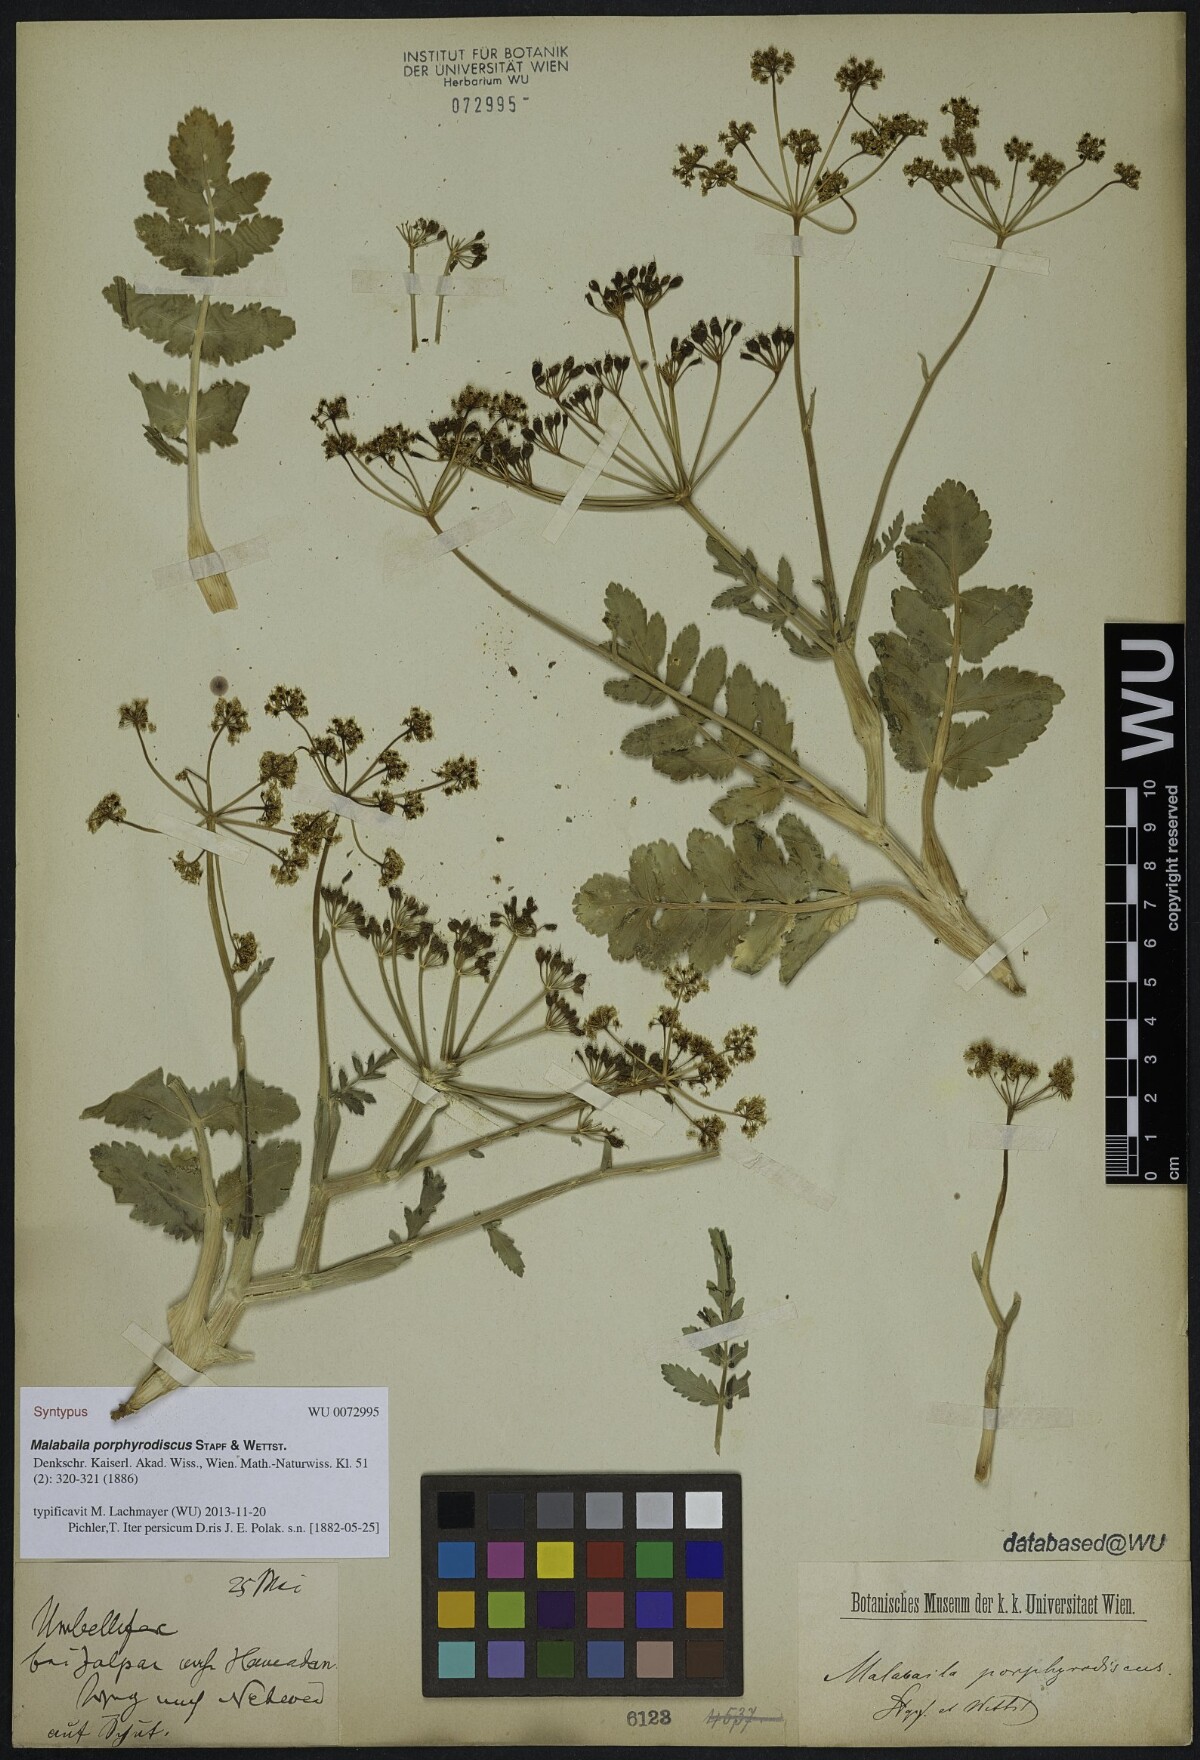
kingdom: Plantae
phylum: Tracheophyta
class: Magnoliopsida
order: Apiales
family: Apiaceae
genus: Leiotulus
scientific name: Leiotulus porphyrodiscus
